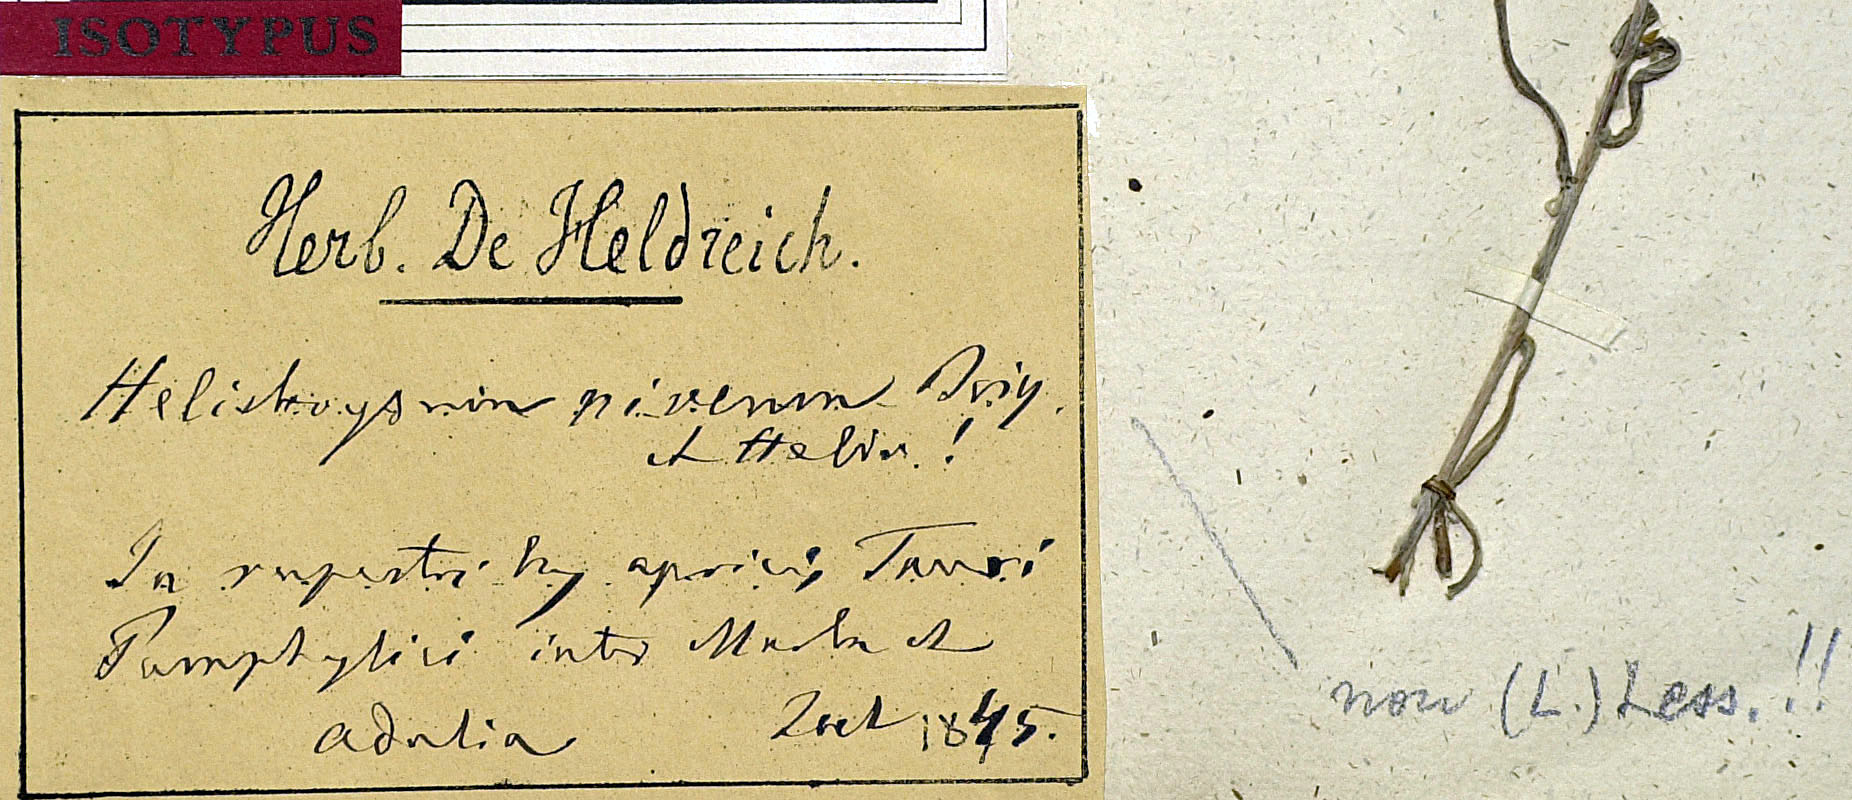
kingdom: Plantae
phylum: Tracheophyta
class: Magnoliopsida
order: Asterales
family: Asteraceae
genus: Helichrysum
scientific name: Helichrysum pamphylicum
